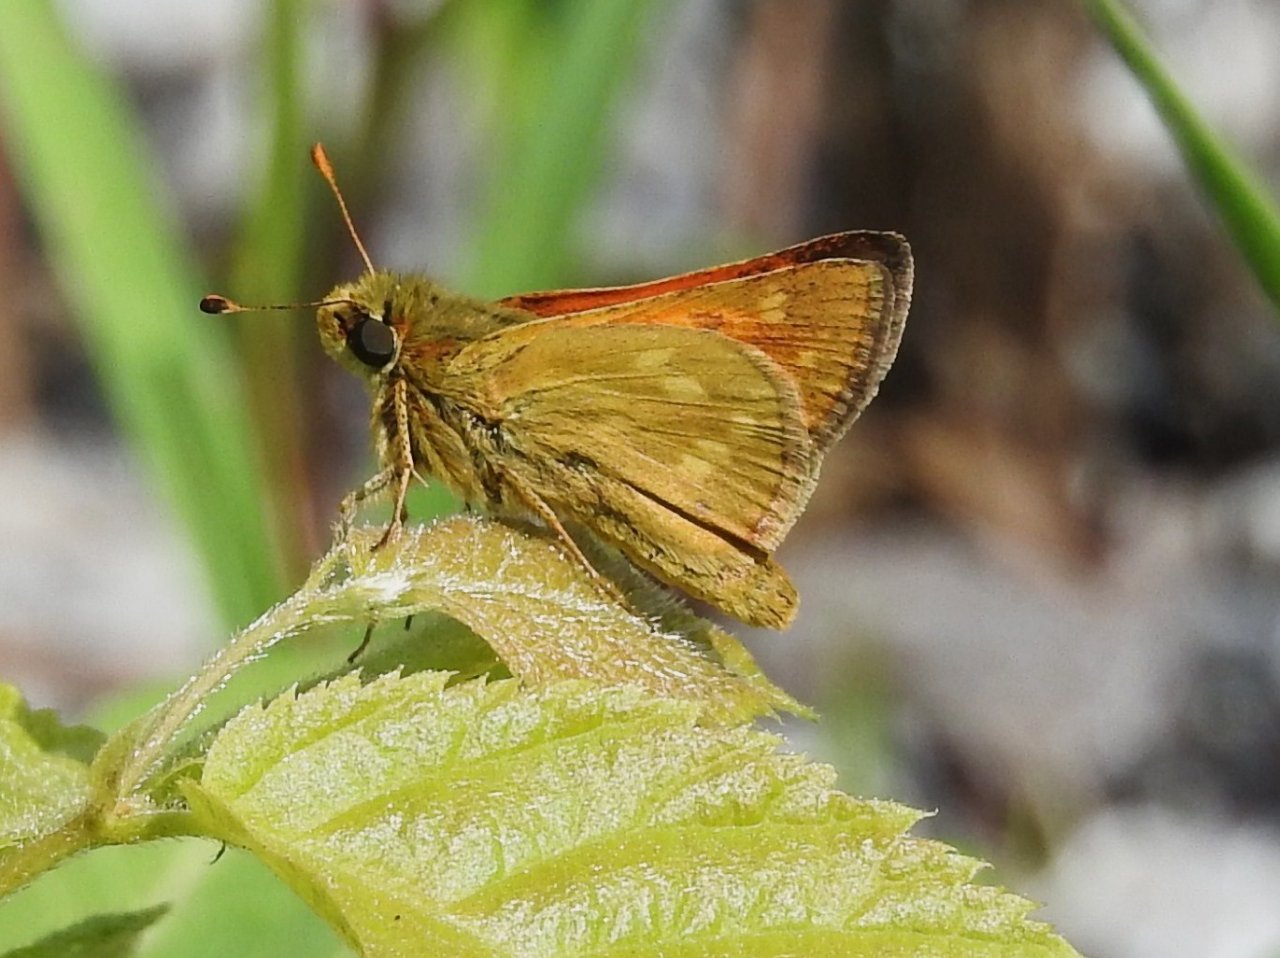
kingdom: Animalia
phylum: Arthropoda
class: Insecta
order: Lepidoptera
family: Hesperiidae
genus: Hesperia
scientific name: Hesperia sassacus
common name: Sassacus Skipper
